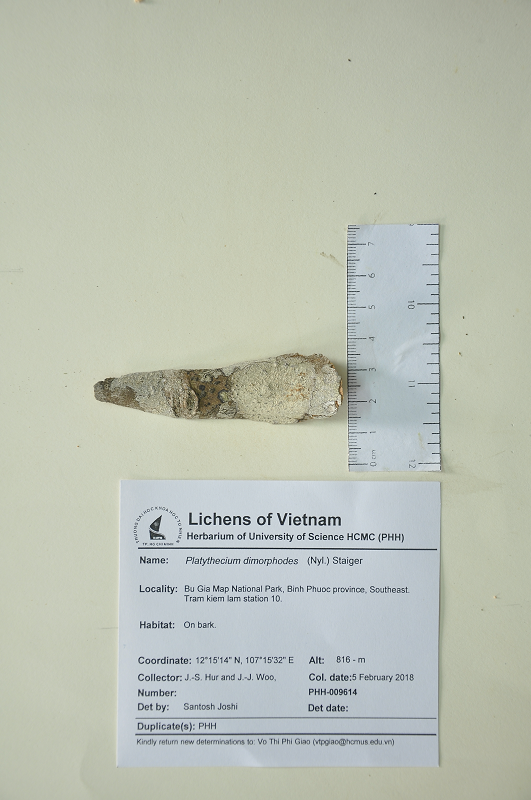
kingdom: Fungi
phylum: Ascomycota
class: Lecanoromycetes
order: Ostropales
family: Graphidaceae
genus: Platythecium
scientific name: Platythecium dimorphodes
